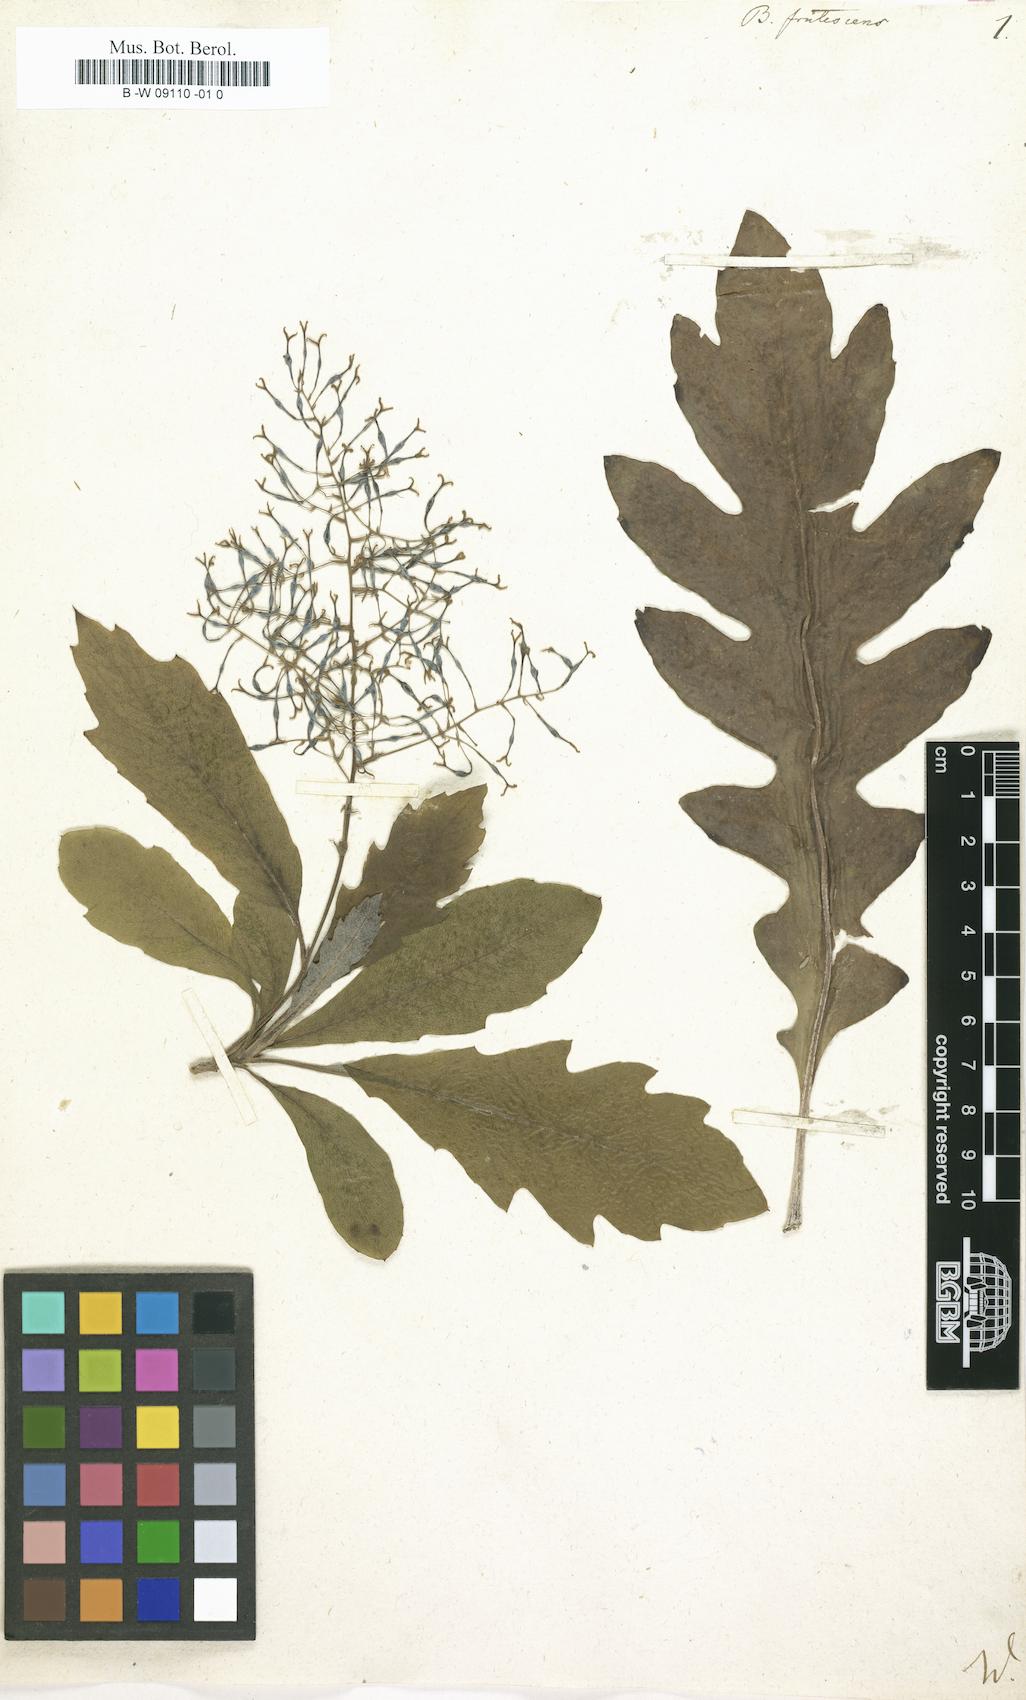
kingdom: Plantae
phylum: Tracheophyta
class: Magnoliopsida
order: Ranunculales
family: Papaveraceae
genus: Bocconia
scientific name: Bocconia frutescens
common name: Tree poppy
